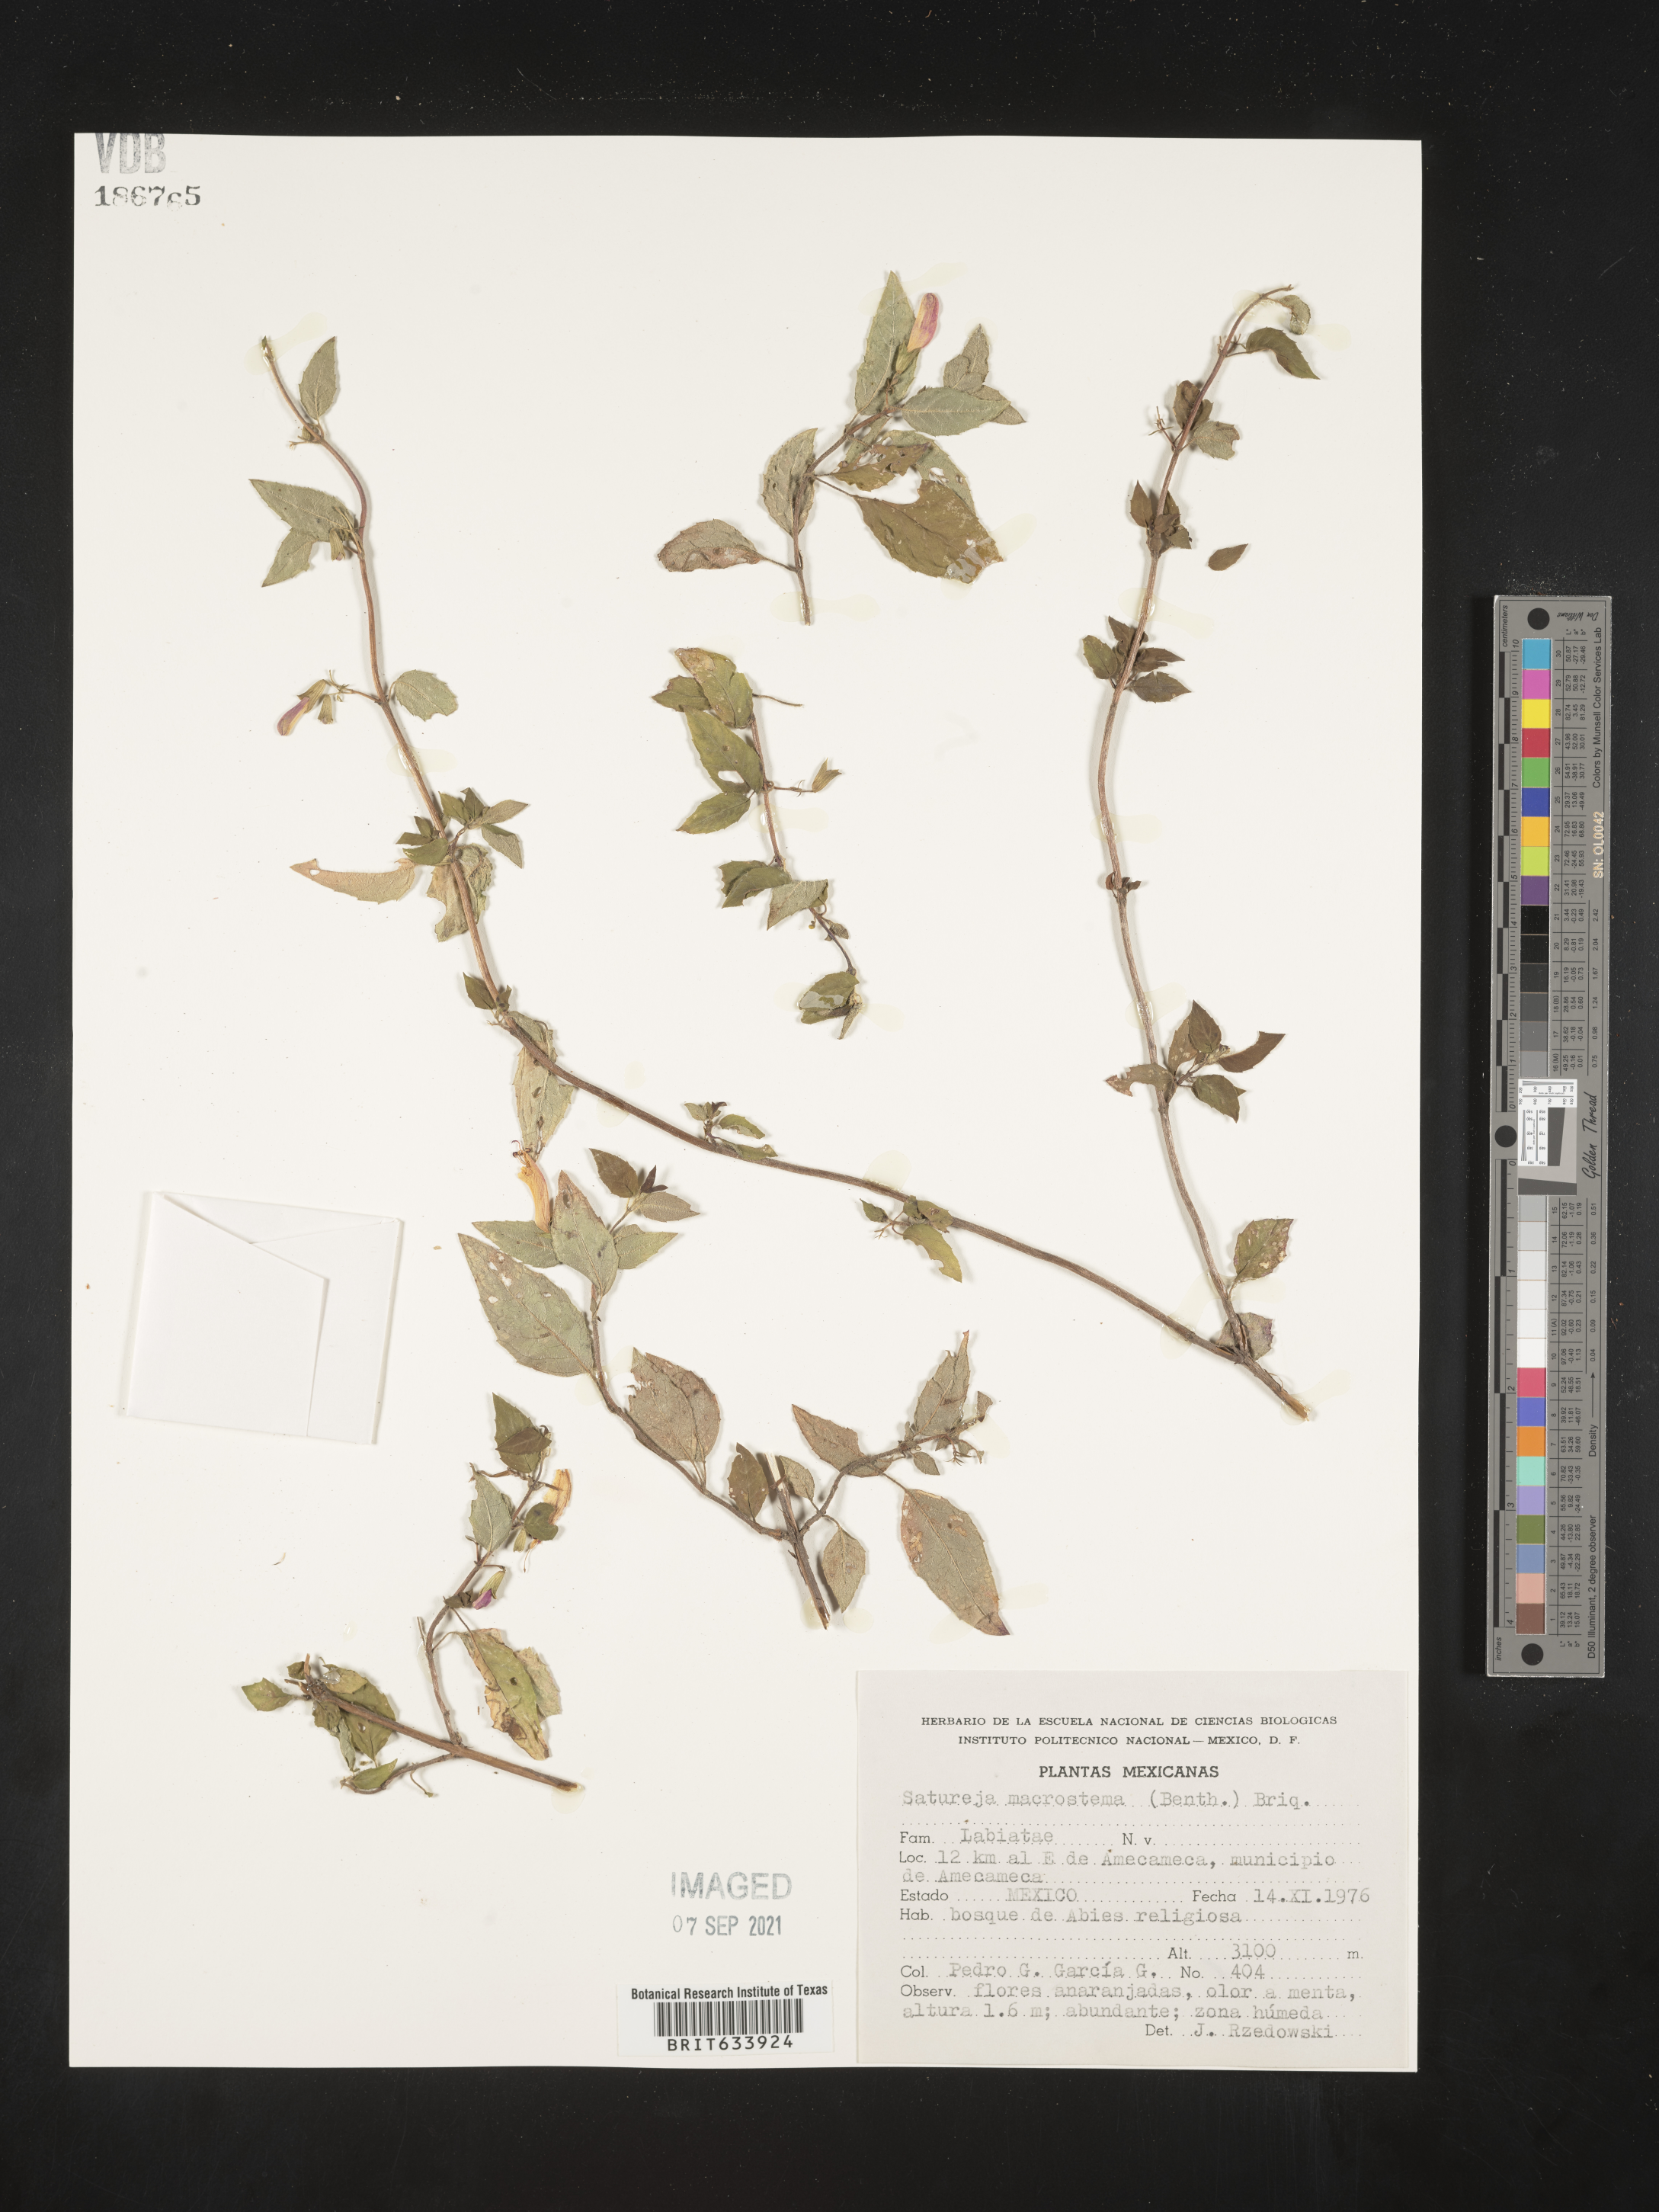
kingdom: Plantae
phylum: Tracheophyta
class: Magnoliopsida
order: Lamiales
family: Lamiaceae
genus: Satureja
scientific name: Satureja
